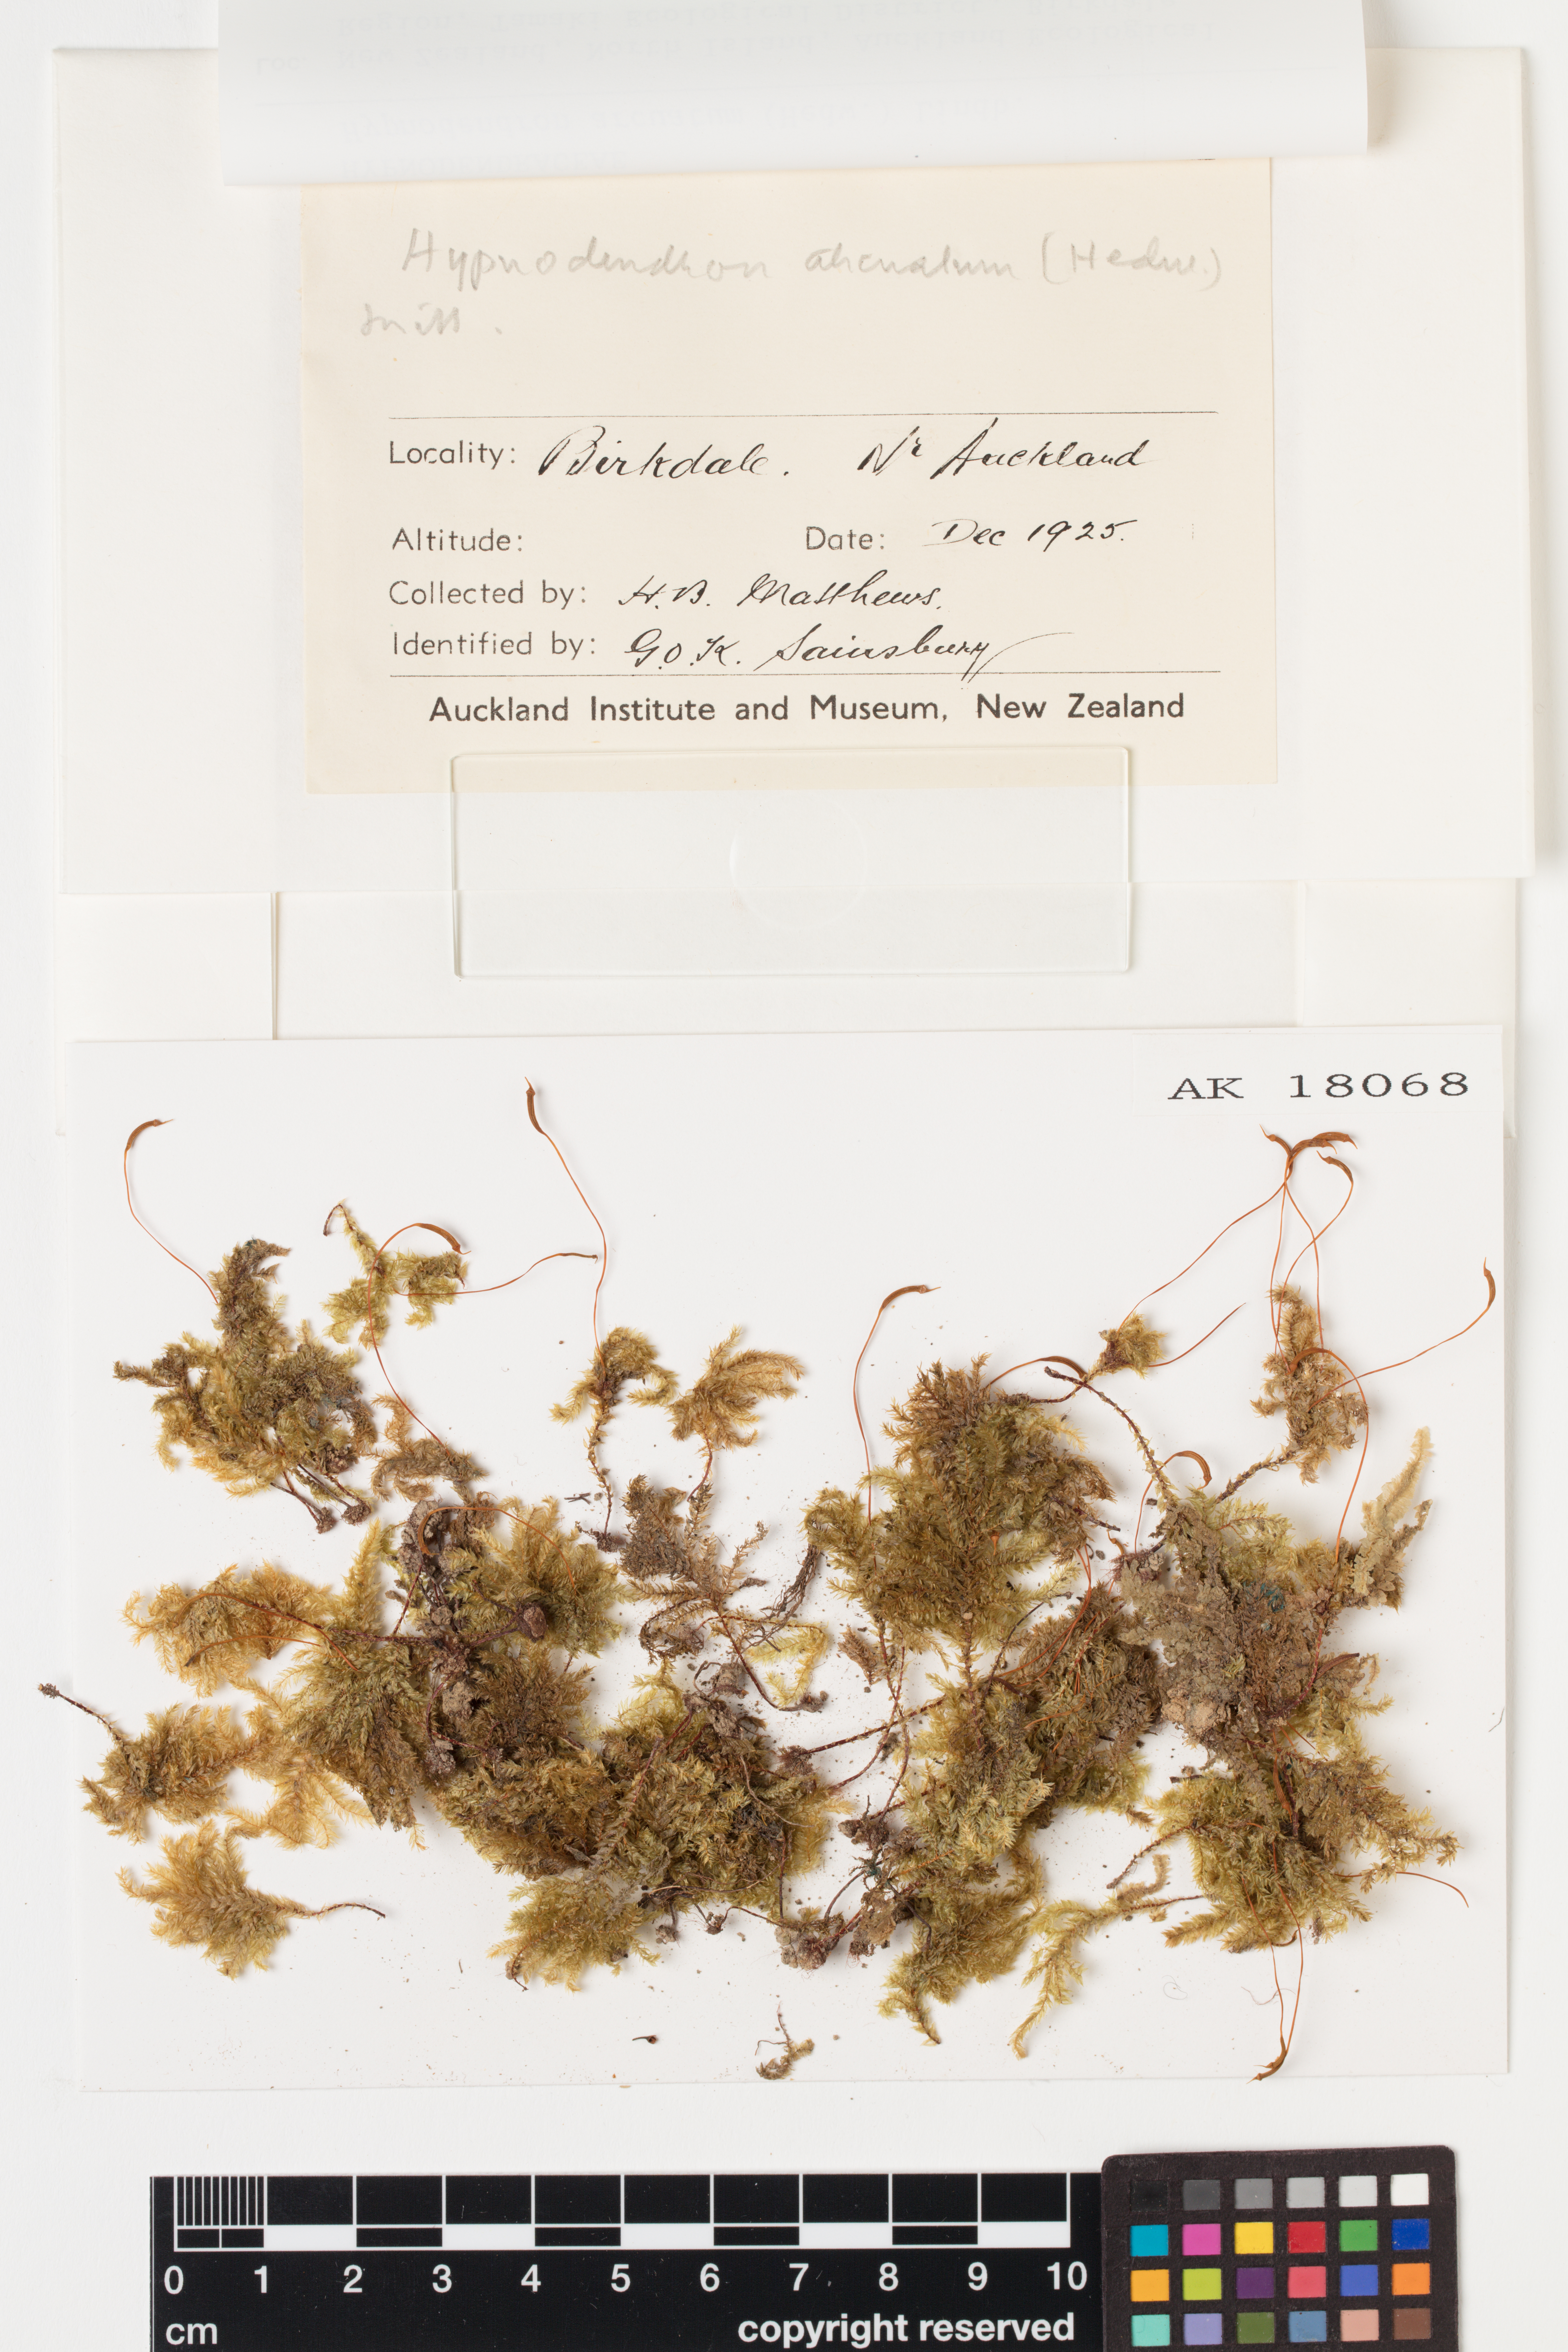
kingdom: Plantae
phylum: Bryophyta
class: Bryopsida
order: Hypnodendrales
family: Spiridentaceae
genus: Hypnodendron
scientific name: Hypnodendron arcuatum
